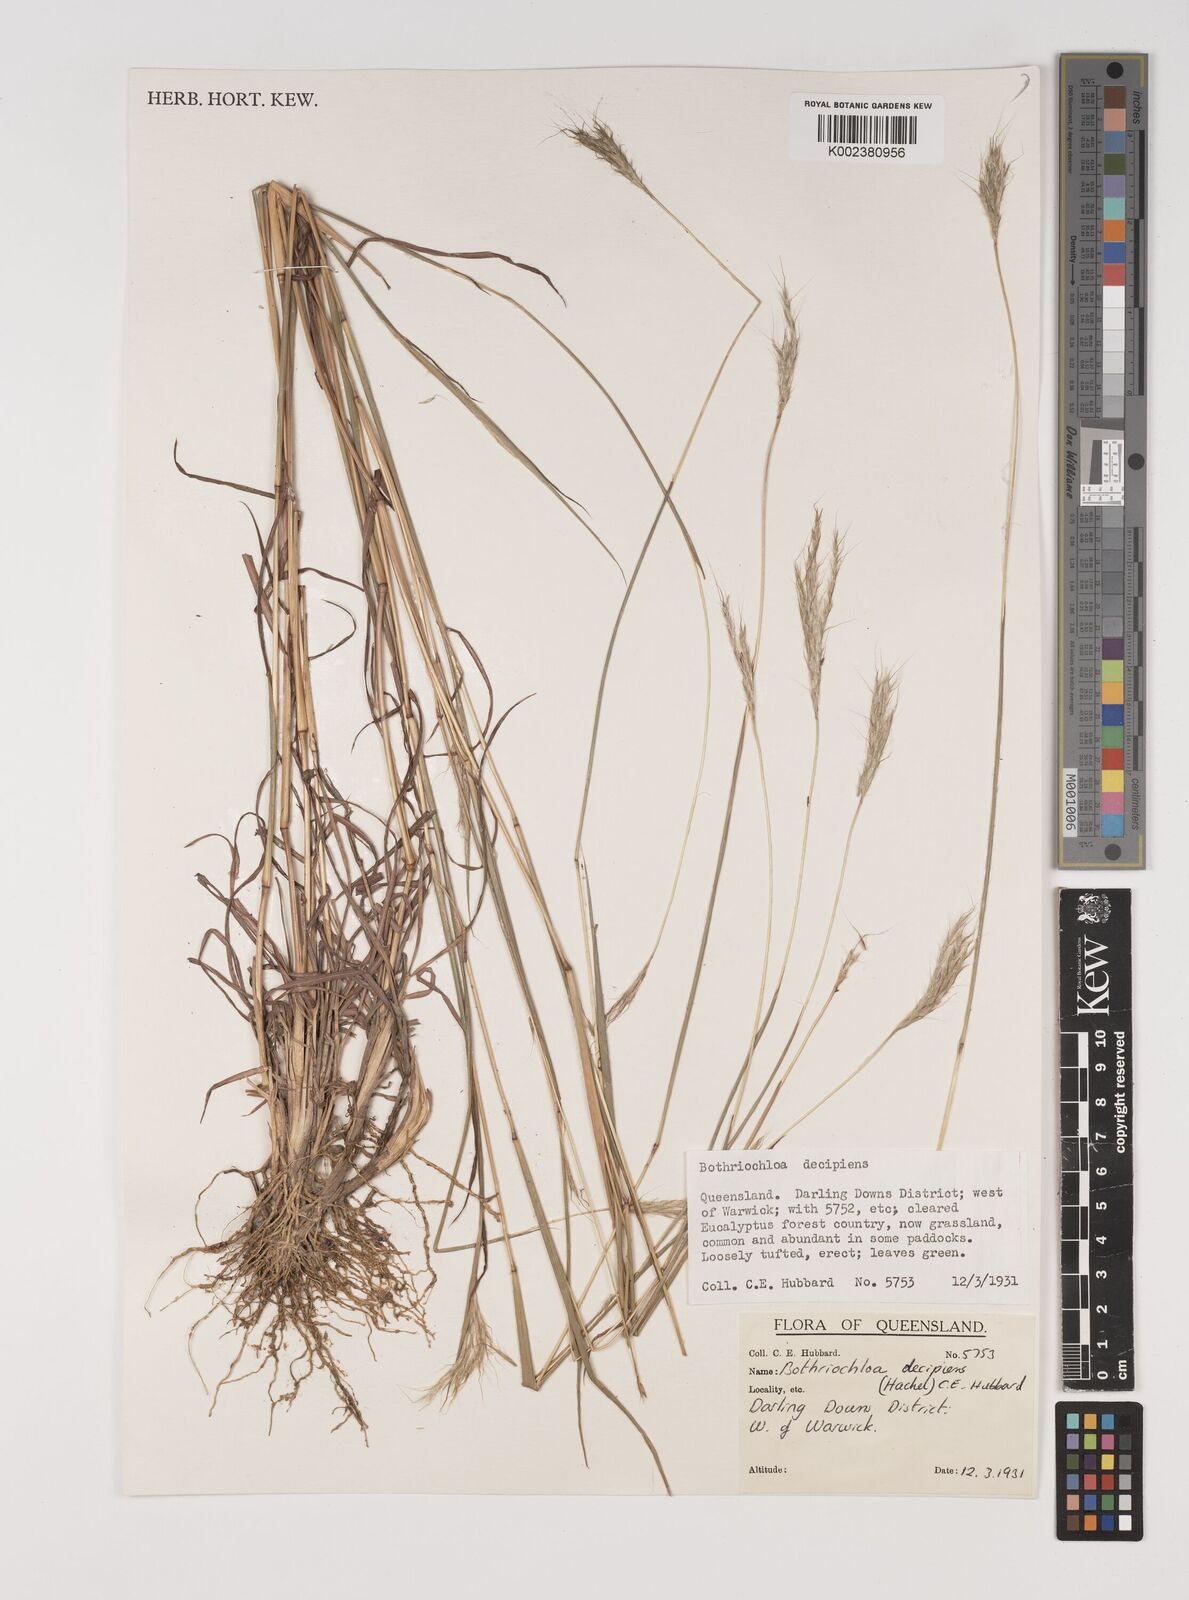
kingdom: Plantae
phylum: Tracheophyta
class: Liliopsida
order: Poales
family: Poaceae
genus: Bothriochloa
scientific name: Bothriochloa decipiens
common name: Pitted-bluegrass
